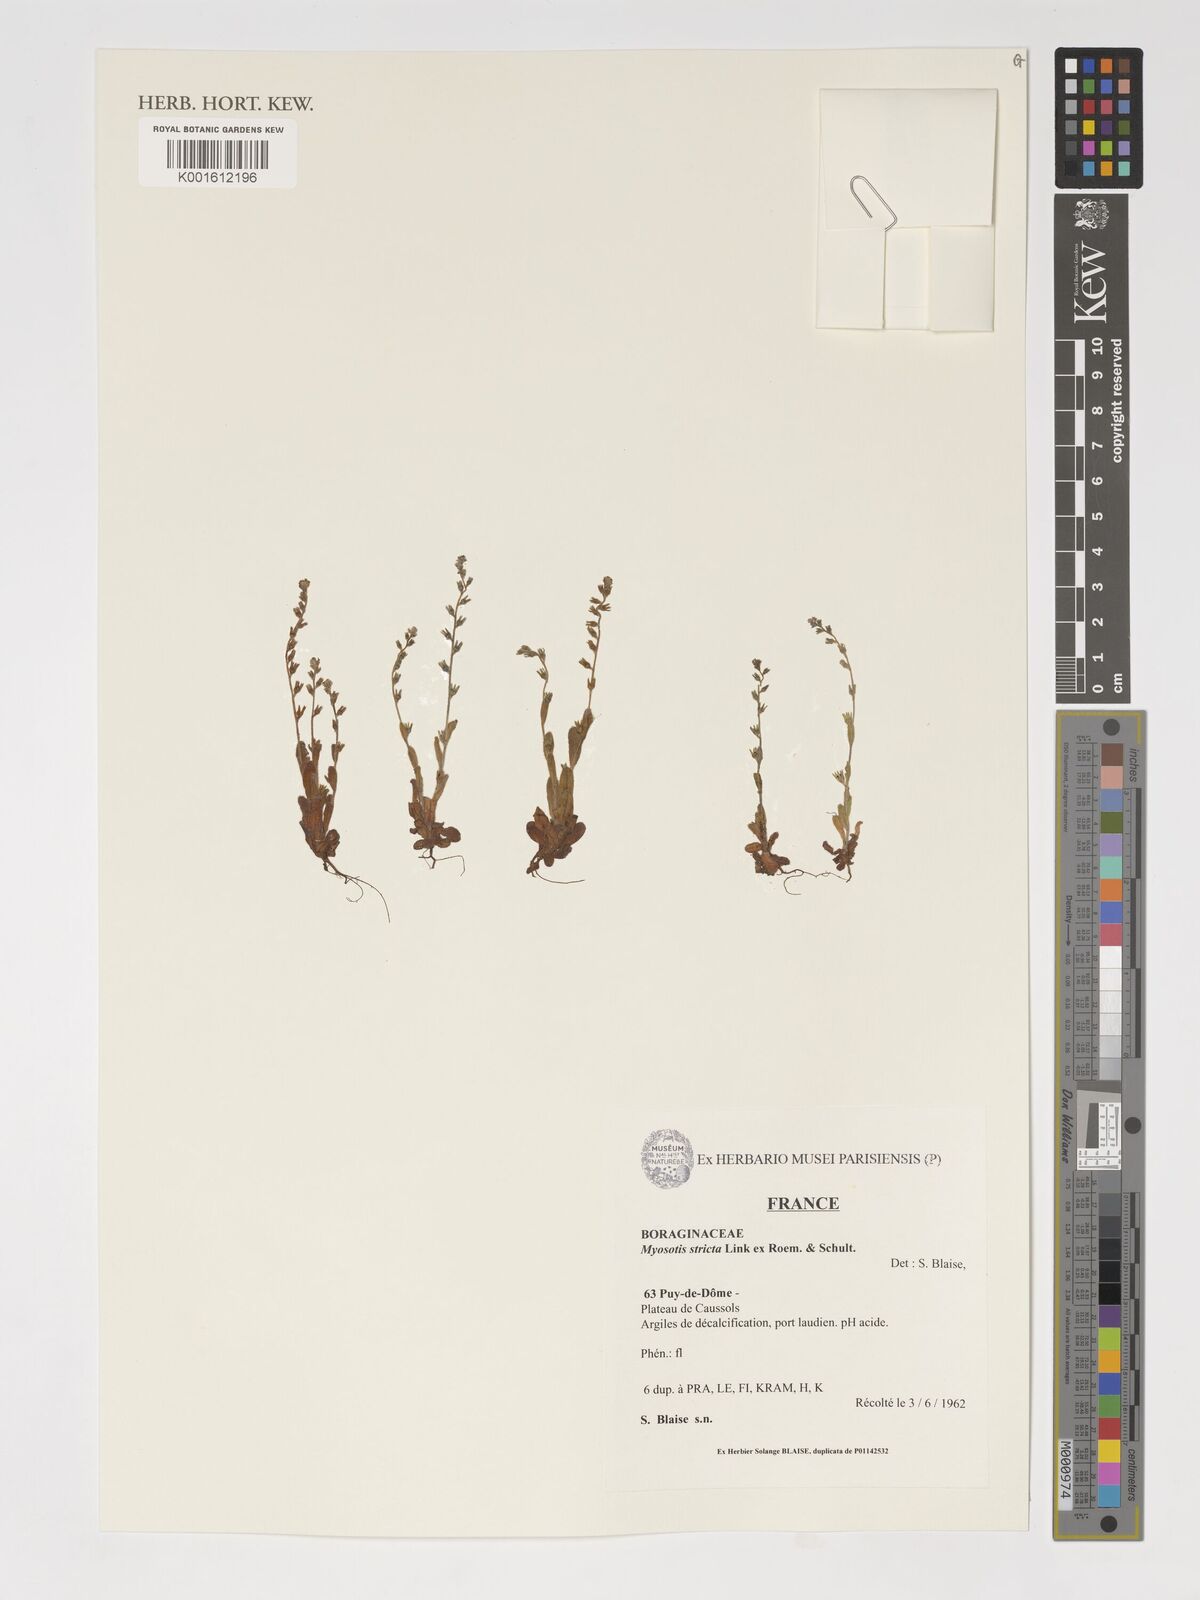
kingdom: Plantae
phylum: Tracheophyta
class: Magnoliopsida
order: Boraginales
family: Boraginaceae
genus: Myosotis
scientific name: Myosotis stricta
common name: Strict forget-me-not
